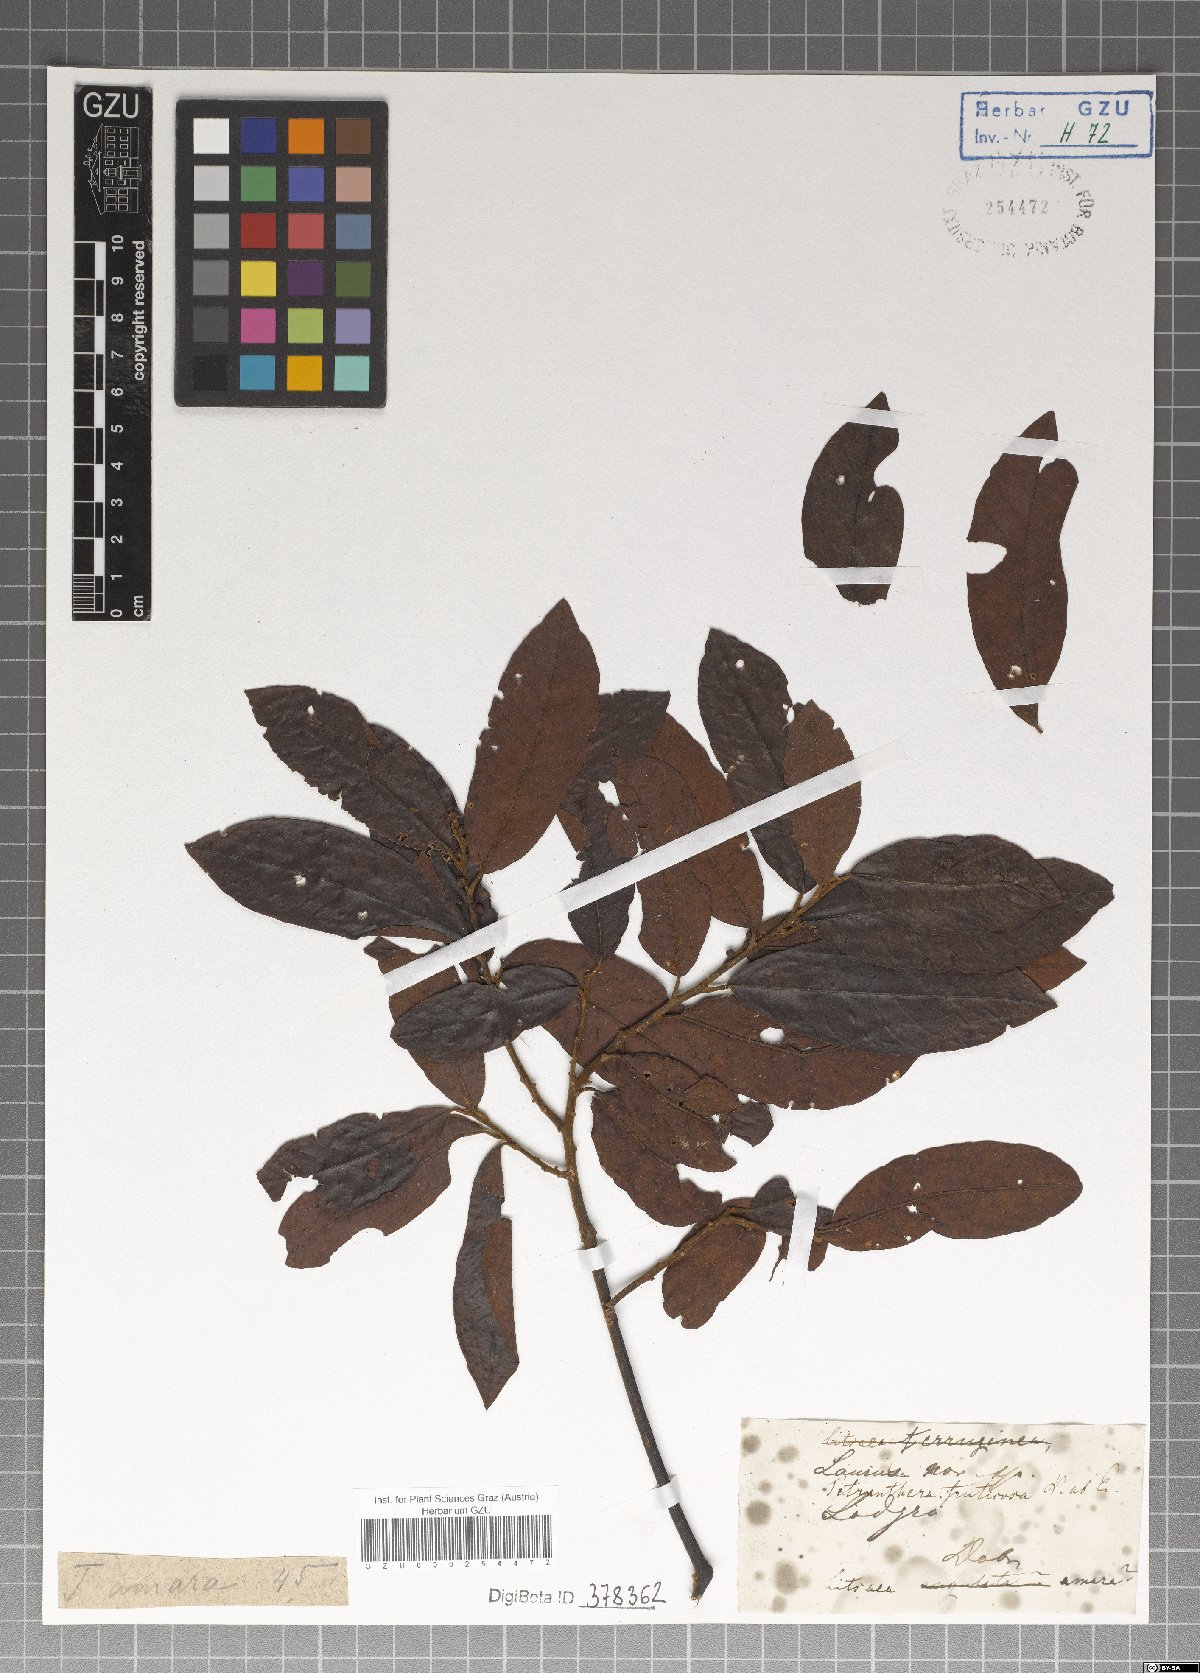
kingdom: Plantae
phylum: Tracheophyta
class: Magnoliopsida
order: Laurales
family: Lauraceae
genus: Litsea
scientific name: Litsea umbellata
